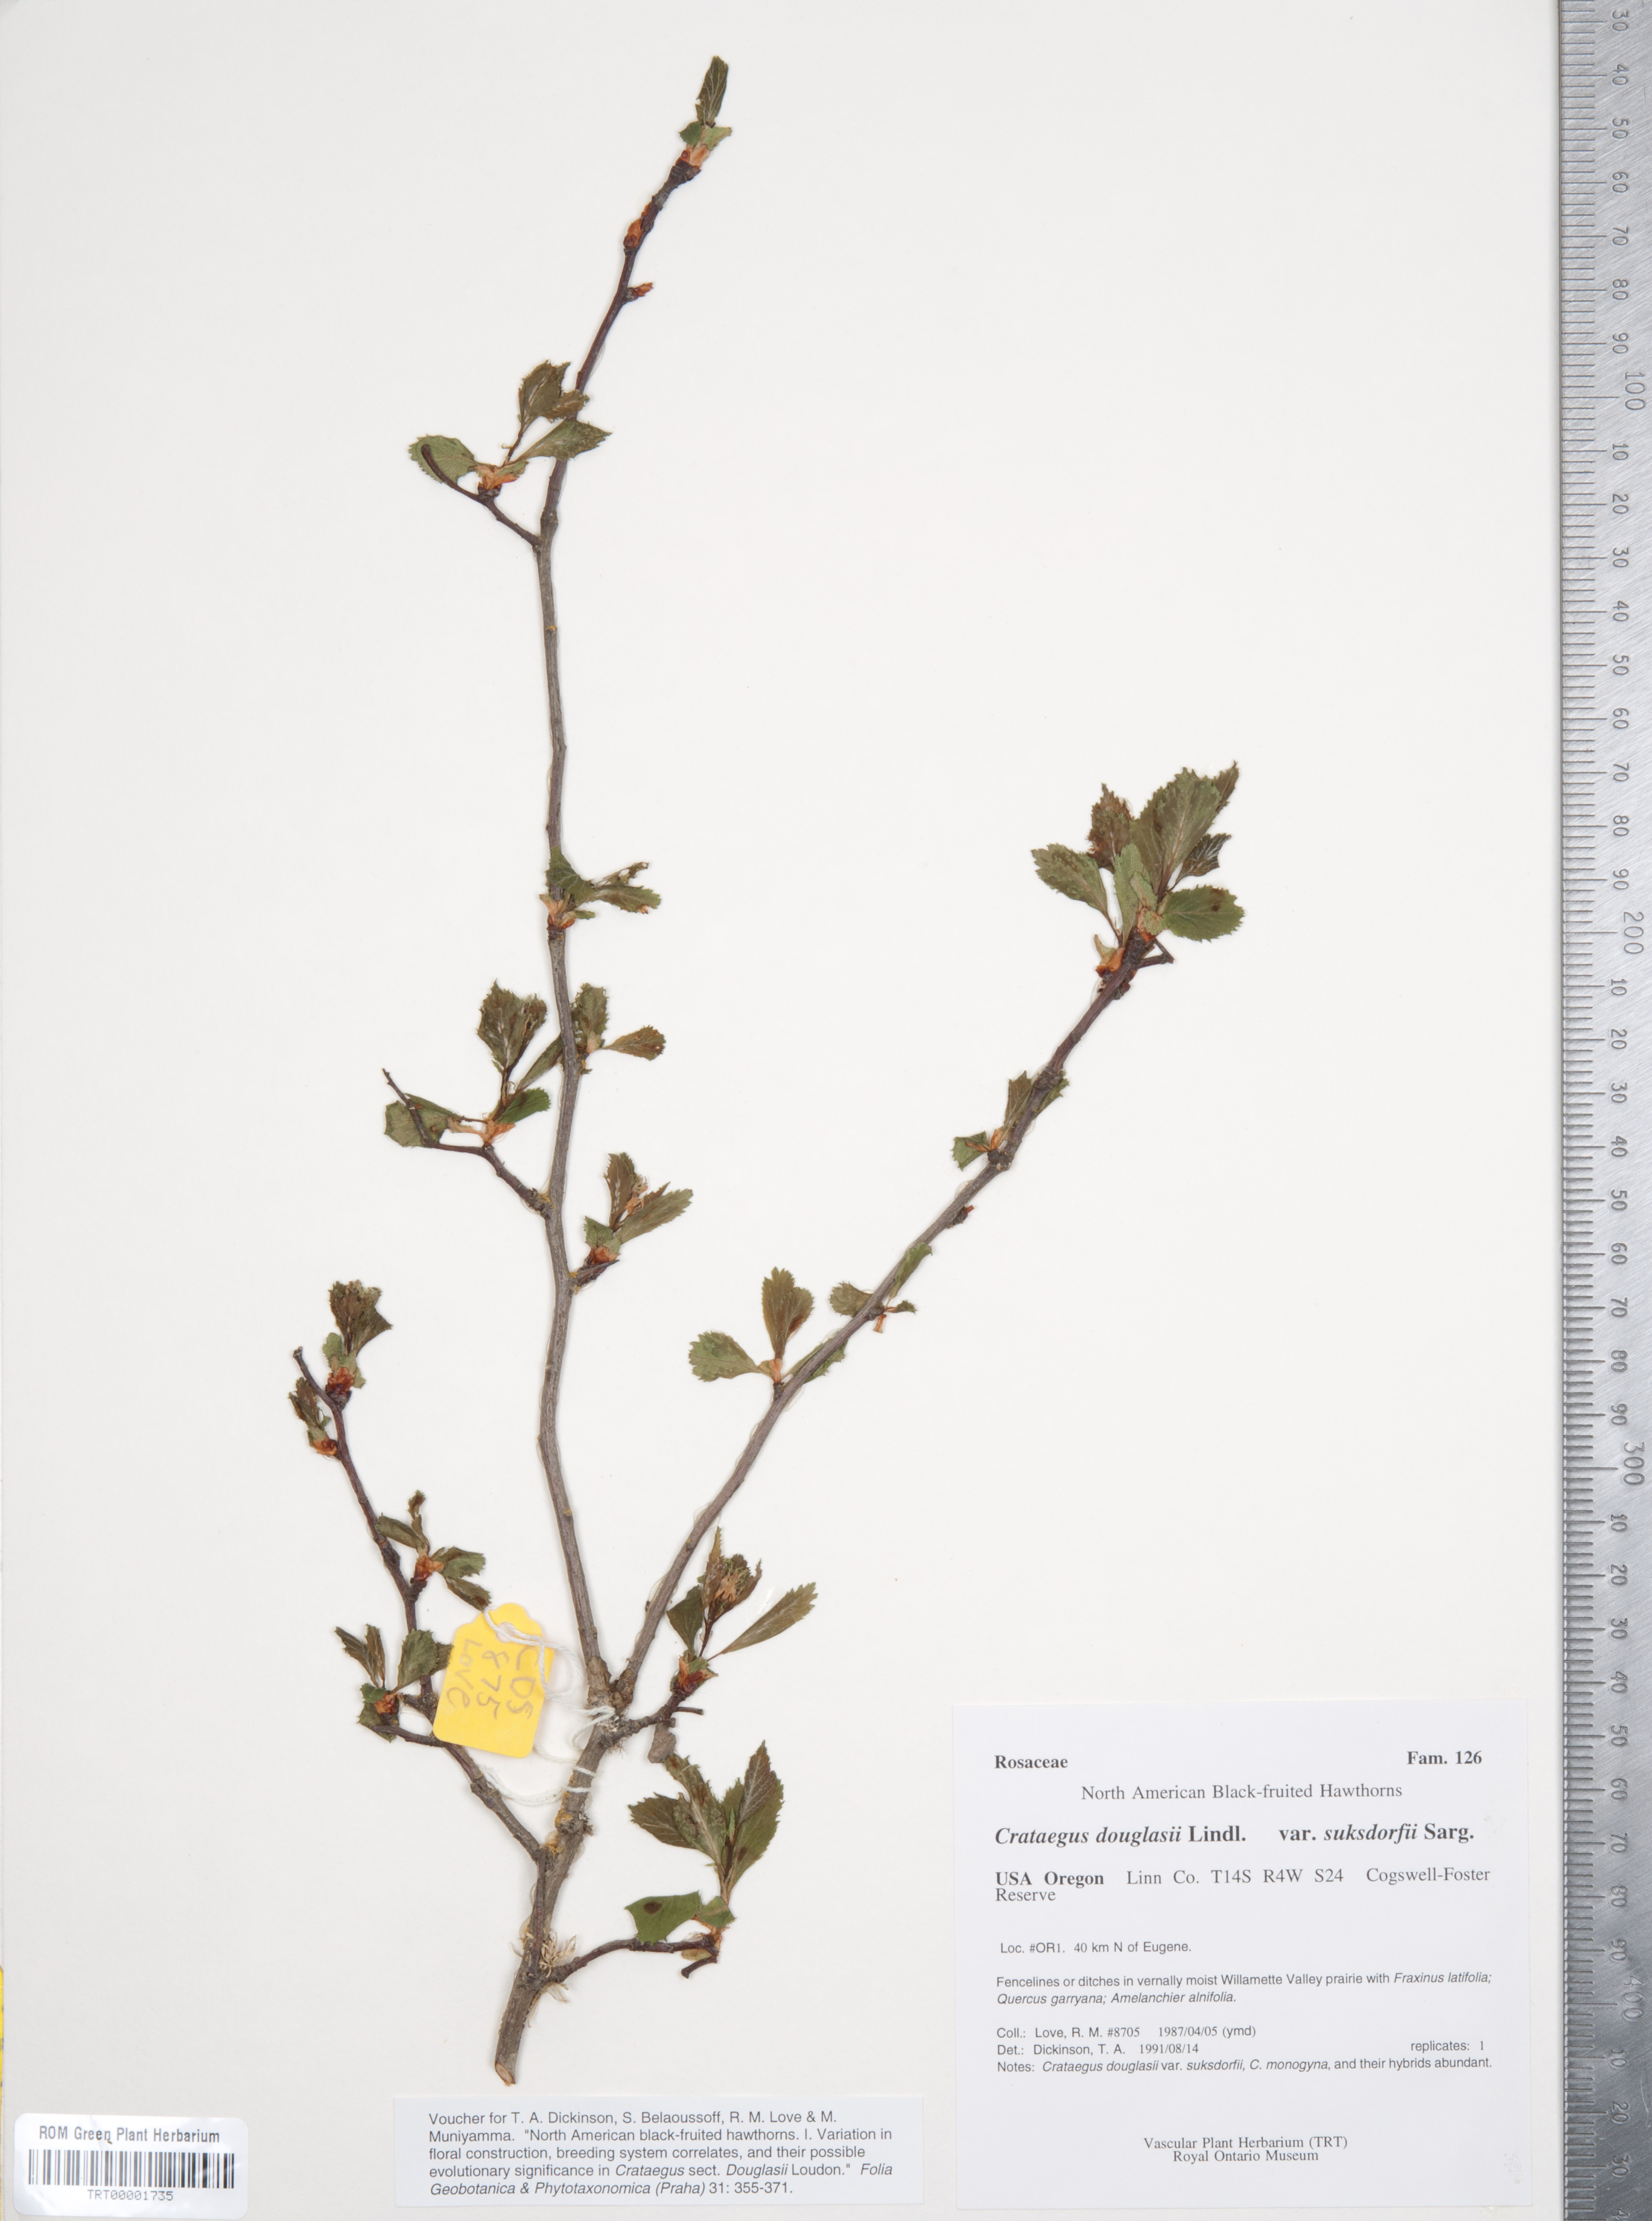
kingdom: Plantae
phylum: Tracheophyta
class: Magnoliopsida
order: Rosales
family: Rosaceae
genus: Crataegus
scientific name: Crataegus gaylussacia
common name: Huckleberry hawthorn
